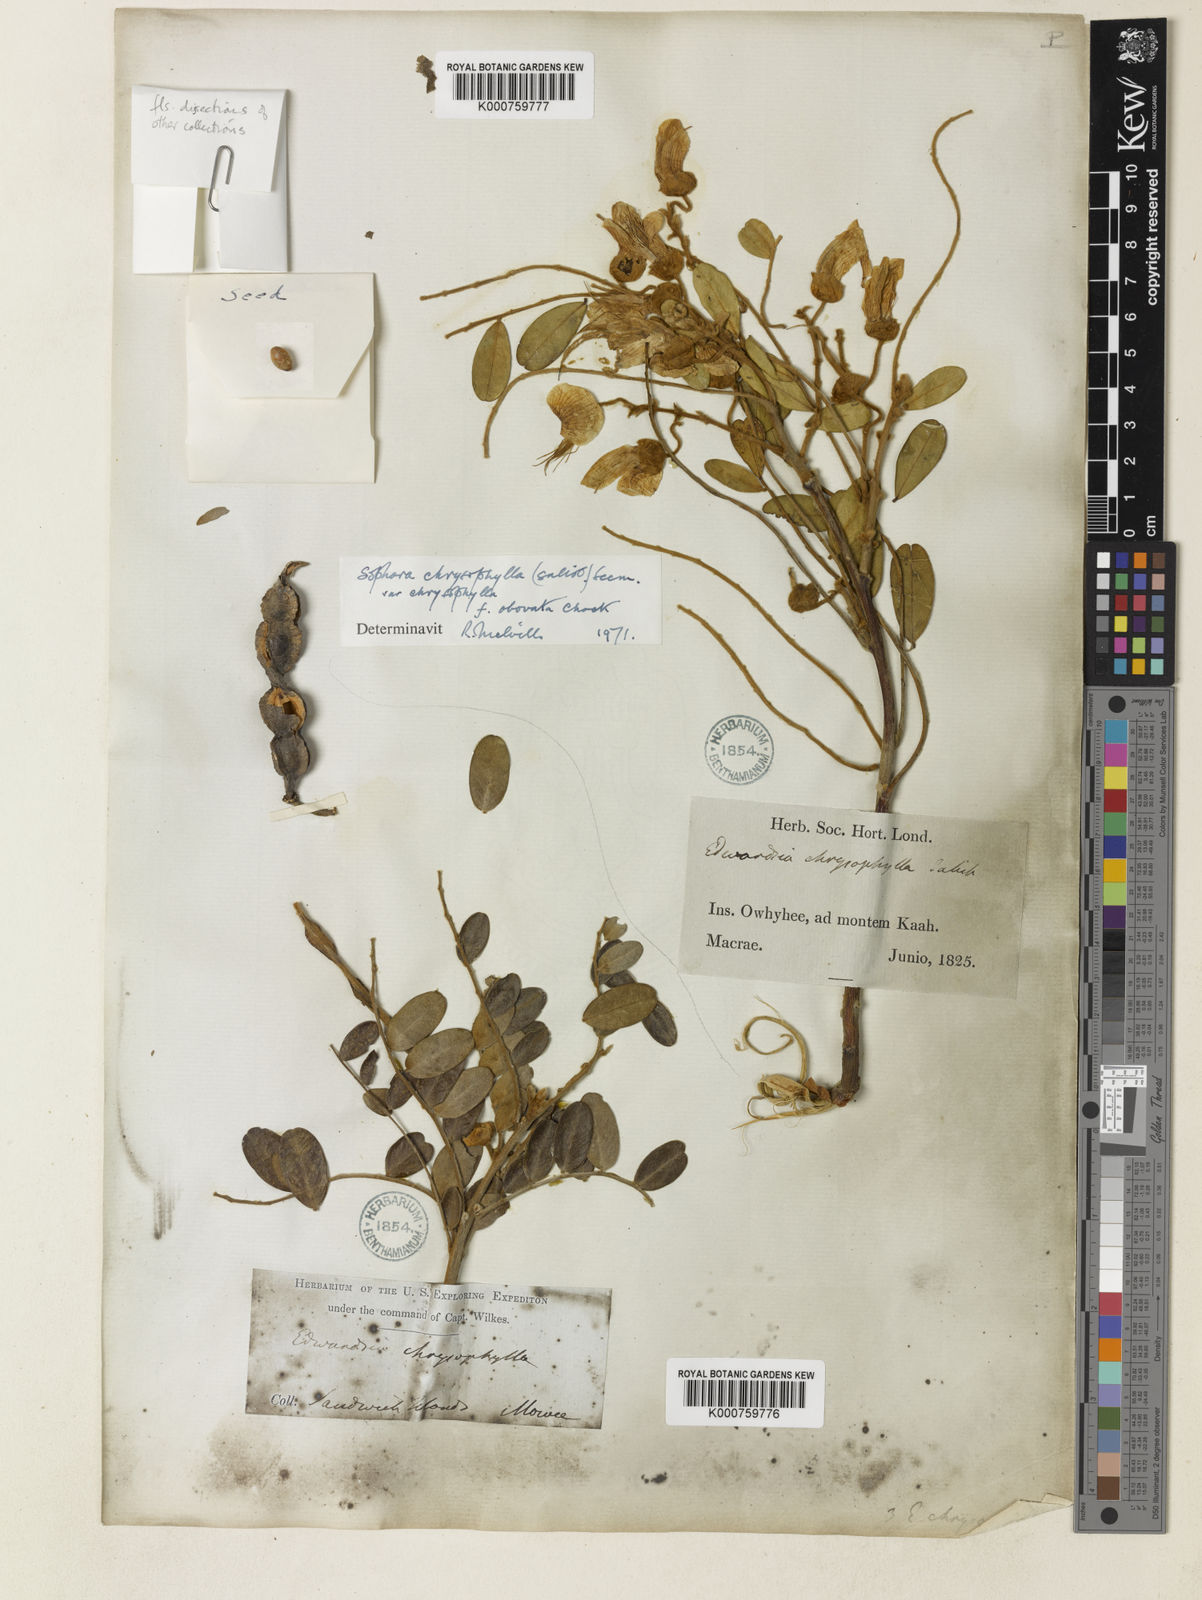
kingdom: Plantae
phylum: Tracheophyta
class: Magnoliopsida
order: Fabales
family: Fabaceae
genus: Sophora
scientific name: Sophora chrysophylla
